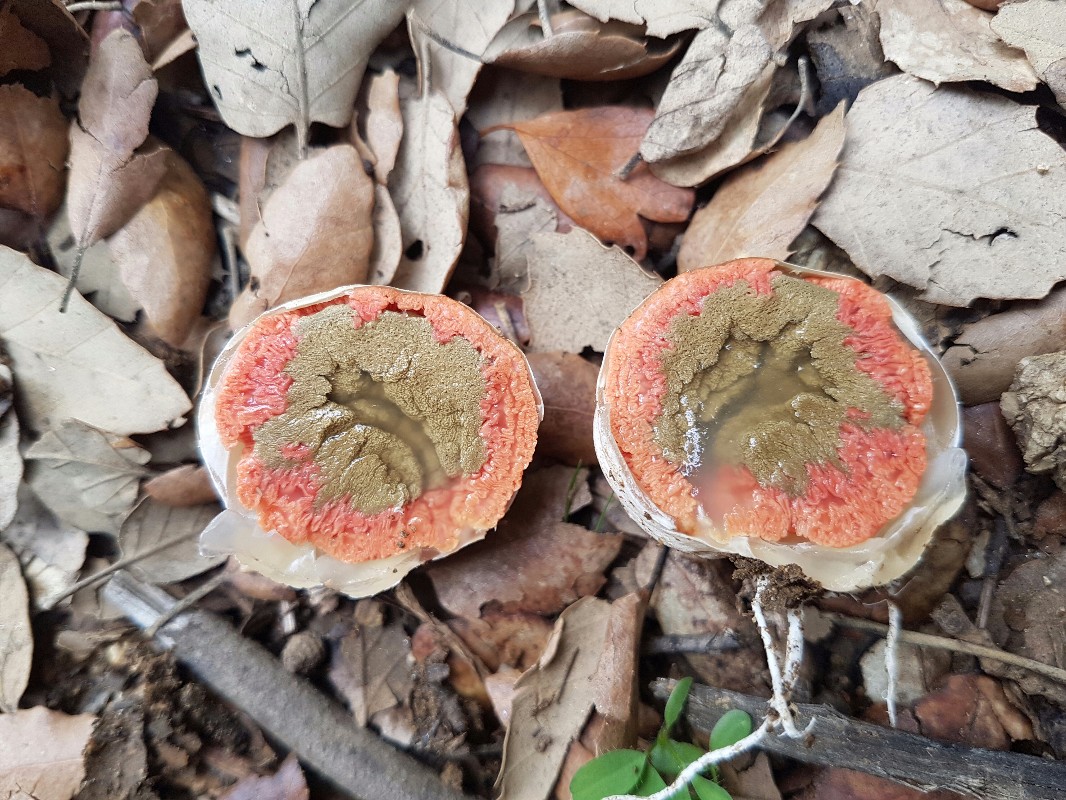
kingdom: Fungi
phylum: Basidiomycota
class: Agaricomycetes
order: Phallales
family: Phallaceae
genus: Clathrus
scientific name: Clathrus ruber
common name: rød gitterkugle
